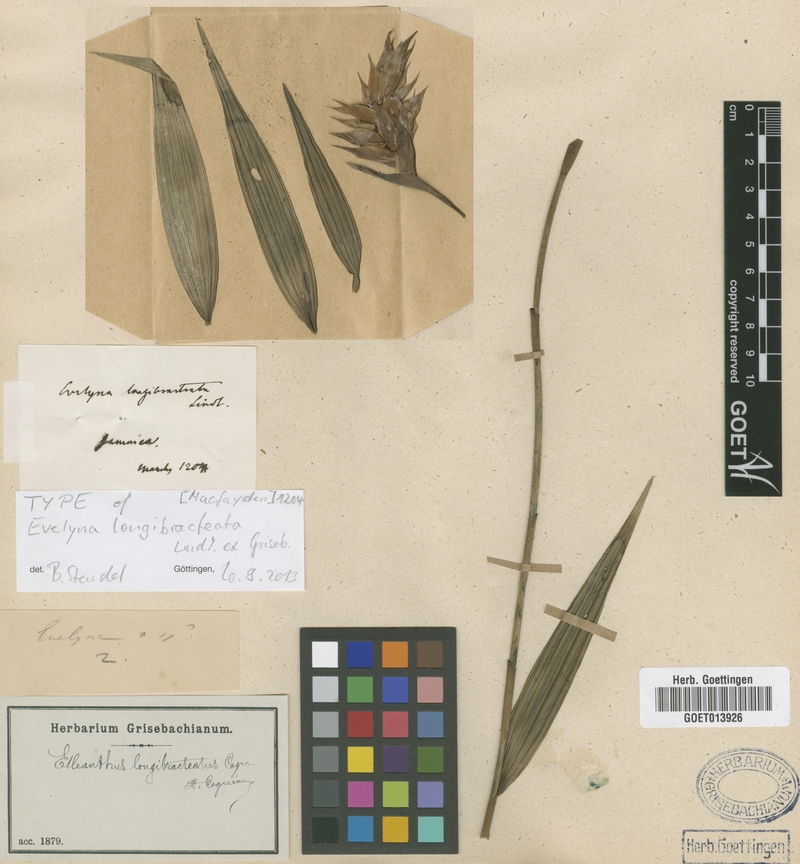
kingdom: Plantae
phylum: Tracheophyta
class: Liliopsida
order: Asparagales
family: Orchidaceae
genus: Elleanthus
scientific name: Elleanthus longibracteatus
